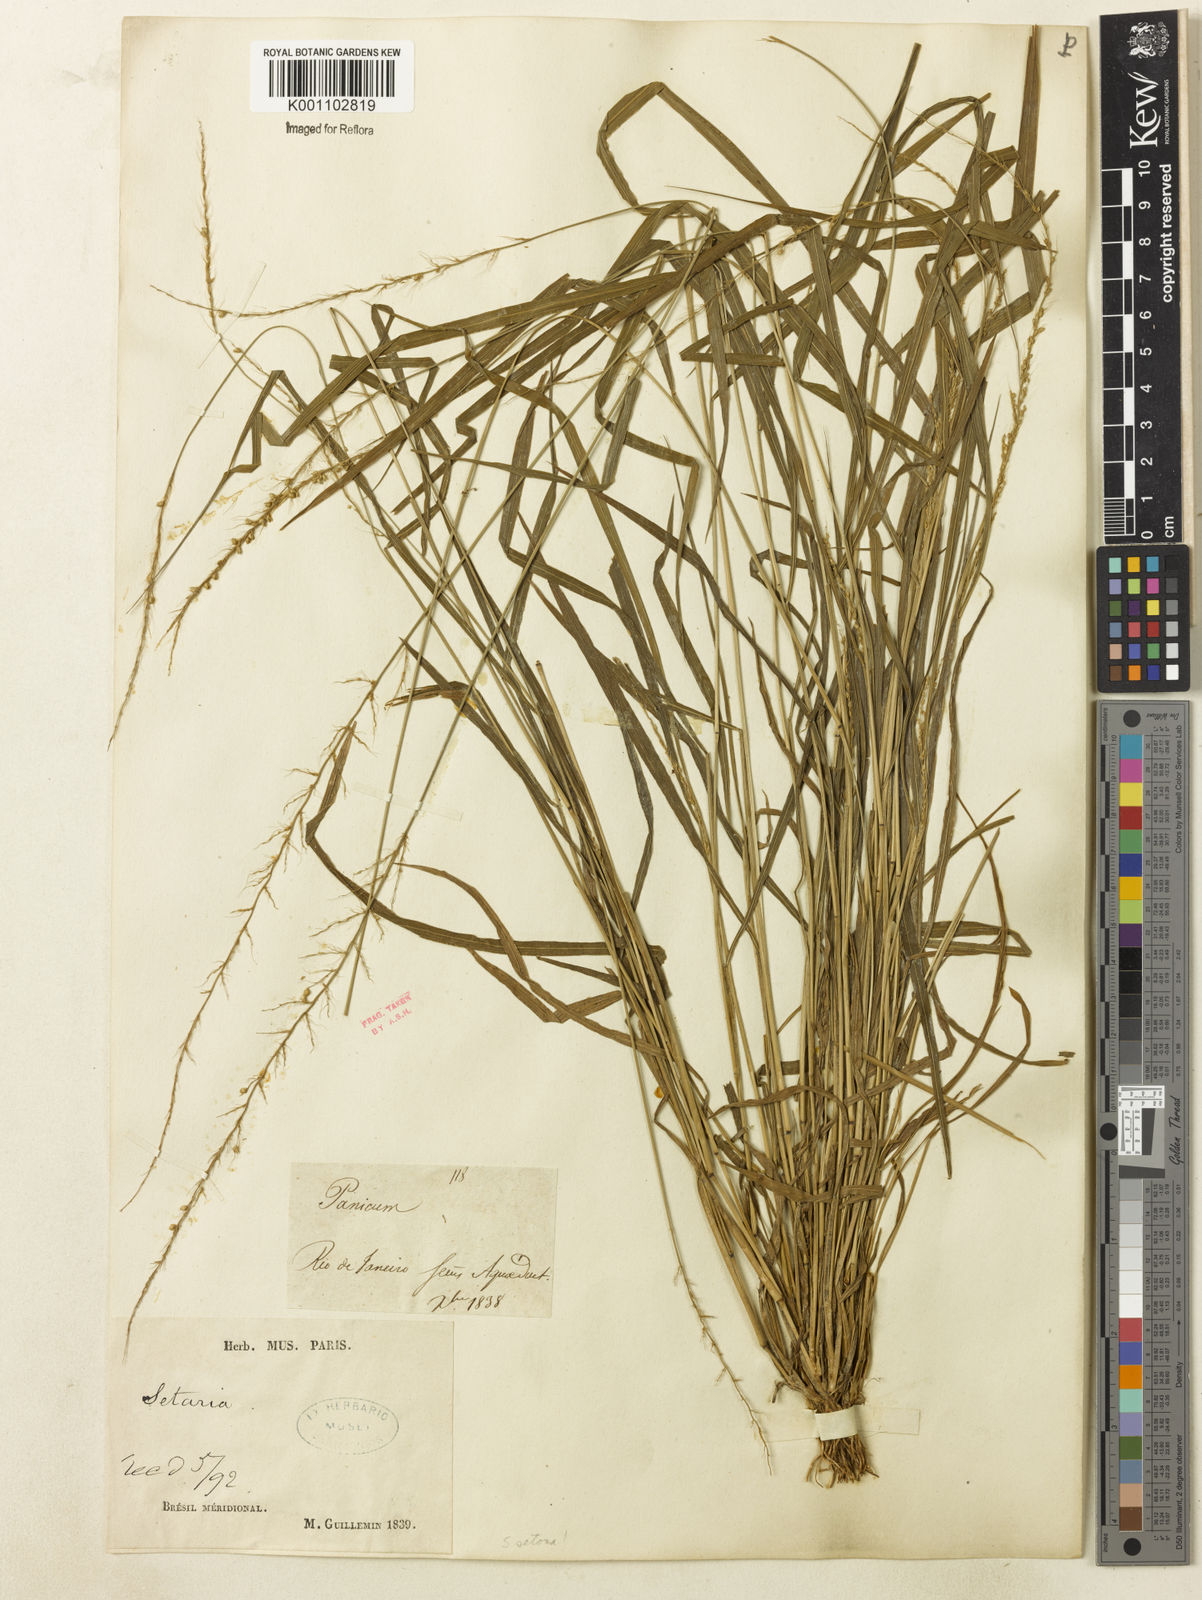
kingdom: Plantae
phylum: Tracheophyta
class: Liliopsida
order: Poales
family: Poaceae
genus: Setaria
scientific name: Setaria setosa
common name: West indies bristle grass
